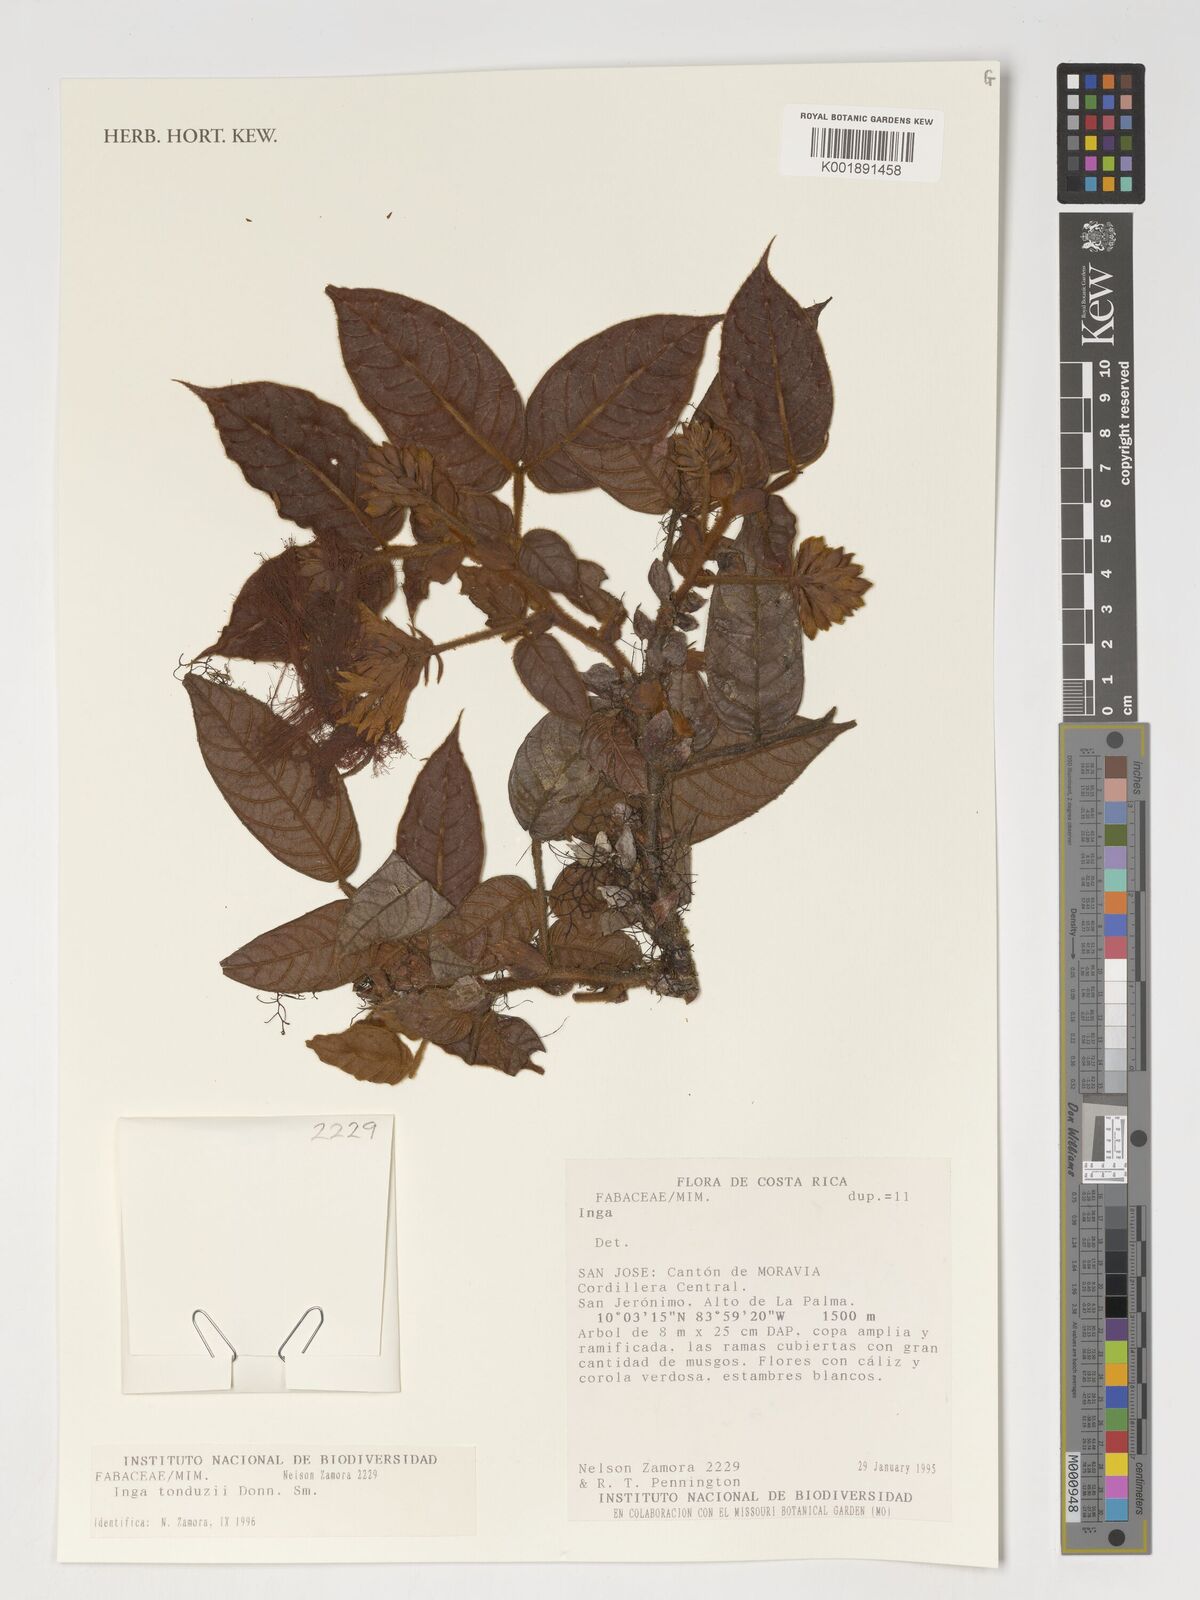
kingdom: Plantae
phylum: Tracheophyta
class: Magnoliopsida
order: Fabales
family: Fabaceae
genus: Inga
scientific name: Inga tonduzii
